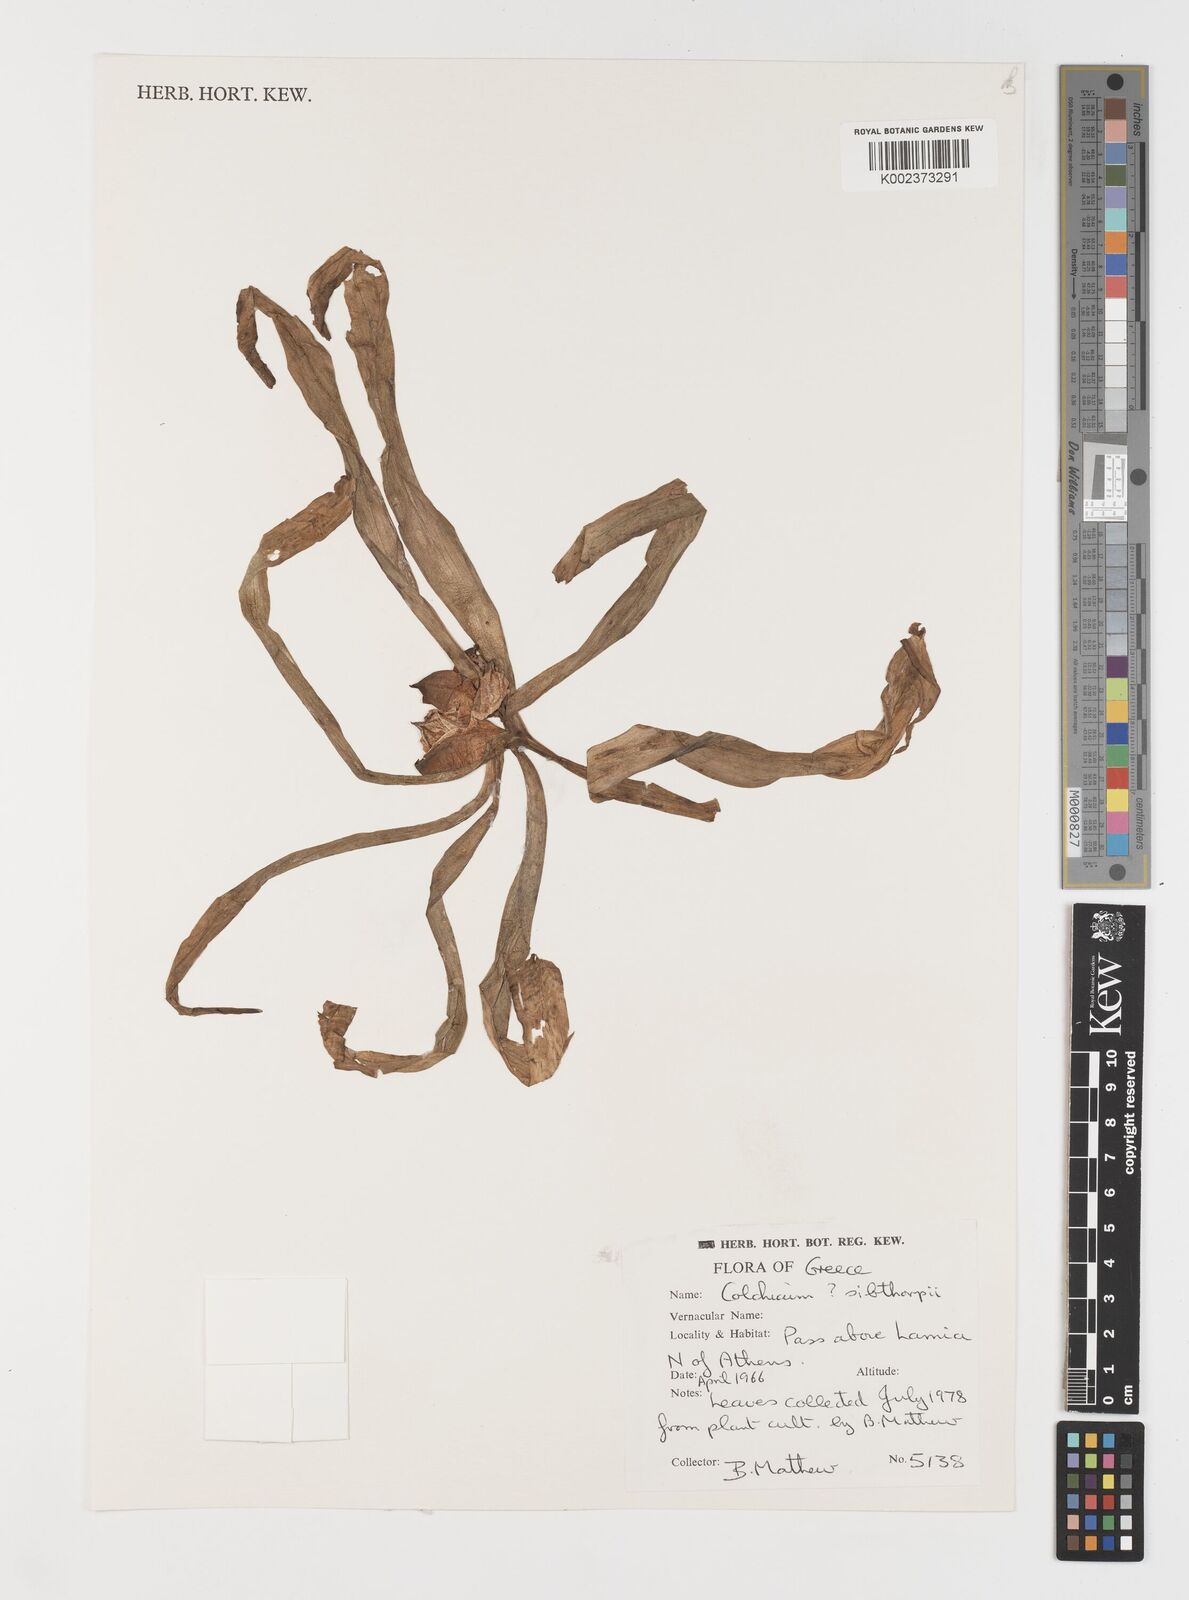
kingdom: Plantae
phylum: Tracheophyta
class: Liliopsida
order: Liliales
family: Colchicaceae
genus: Colchicum
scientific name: Colchicum bivonae
